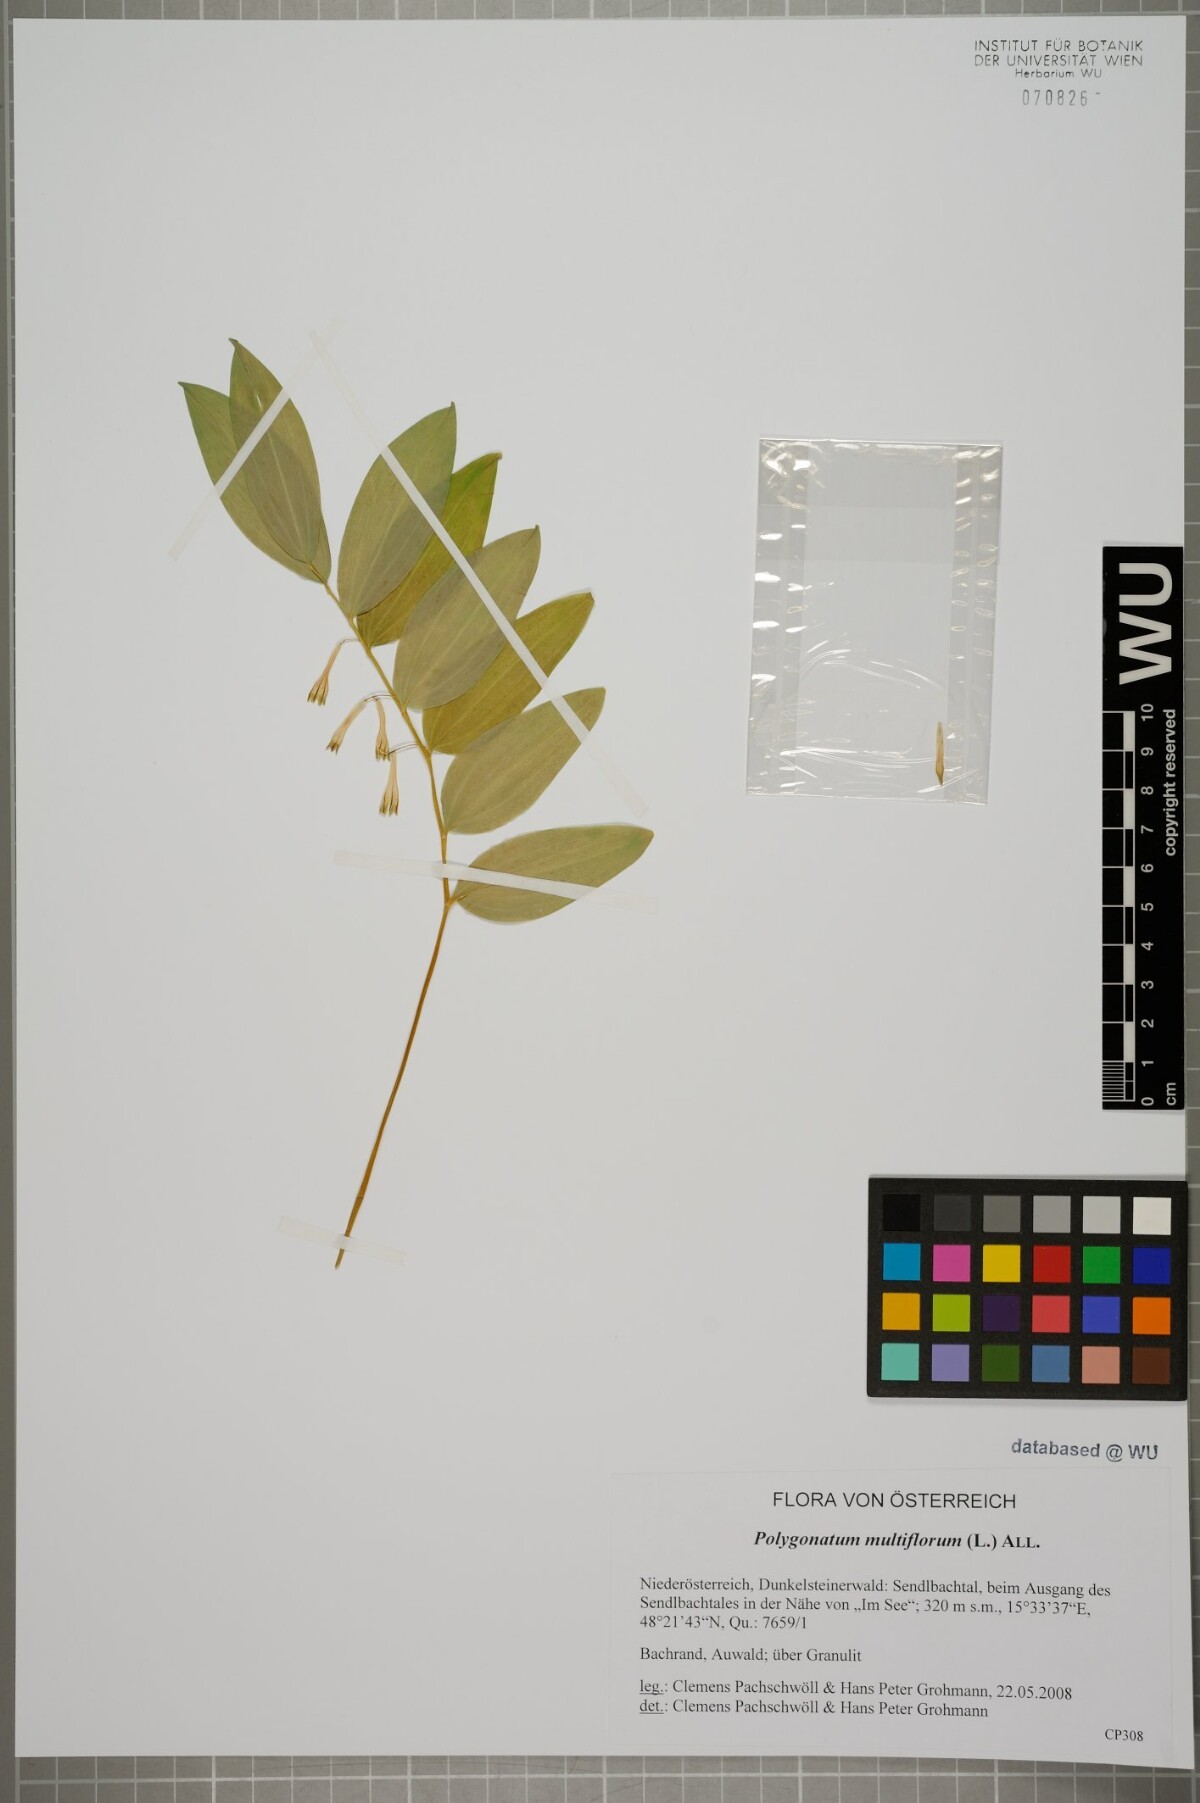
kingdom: Plantae
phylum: Tracheophyta
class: Liliopsida
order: Asparagales
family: Asparagaceae
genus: Polygonatum
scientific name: Polygonatum multiflorum
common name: Solomon's-seal
